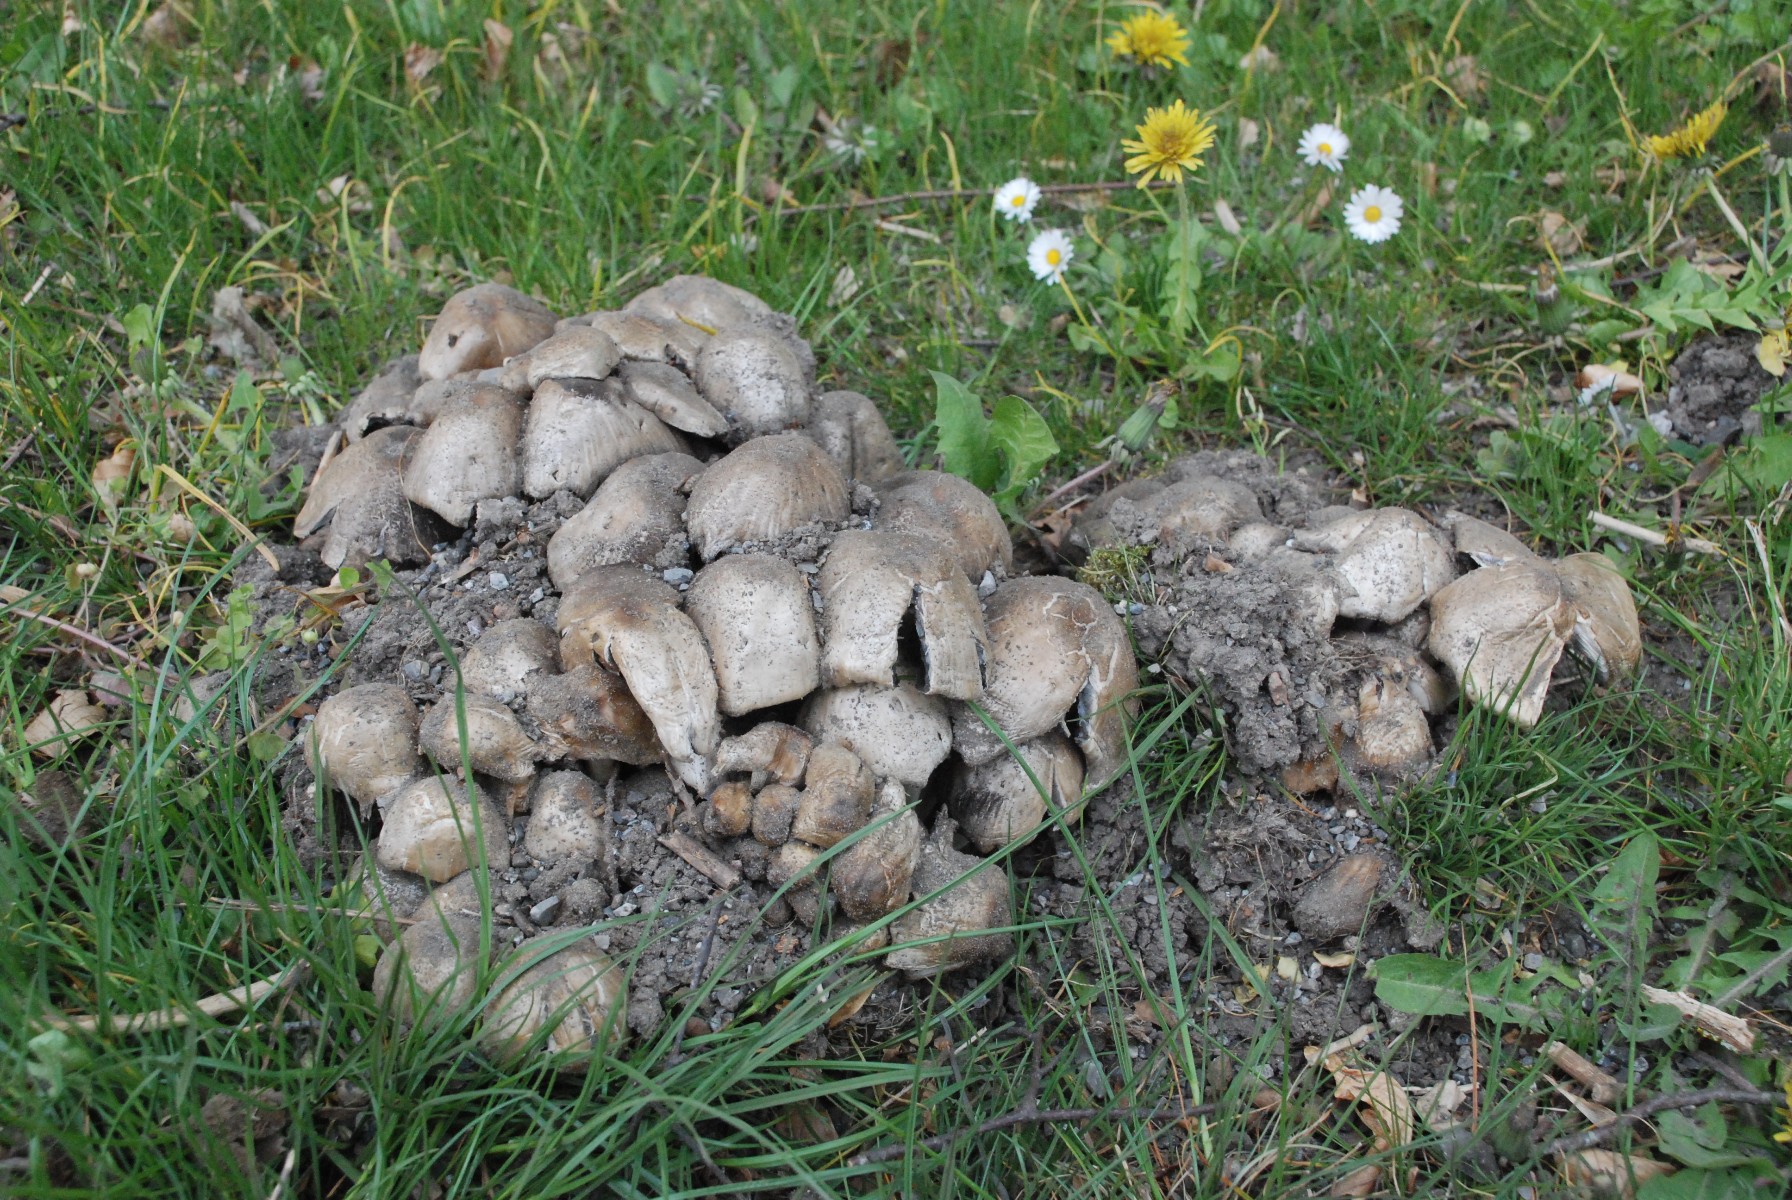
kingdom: Fungi
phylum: Basidiomycota
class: Agaricomycetes
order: Agaricales
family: Psathyrellaceae
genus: Coprinopsis
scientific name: Coprinopsis atramentaria
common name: almindelig blækhat
